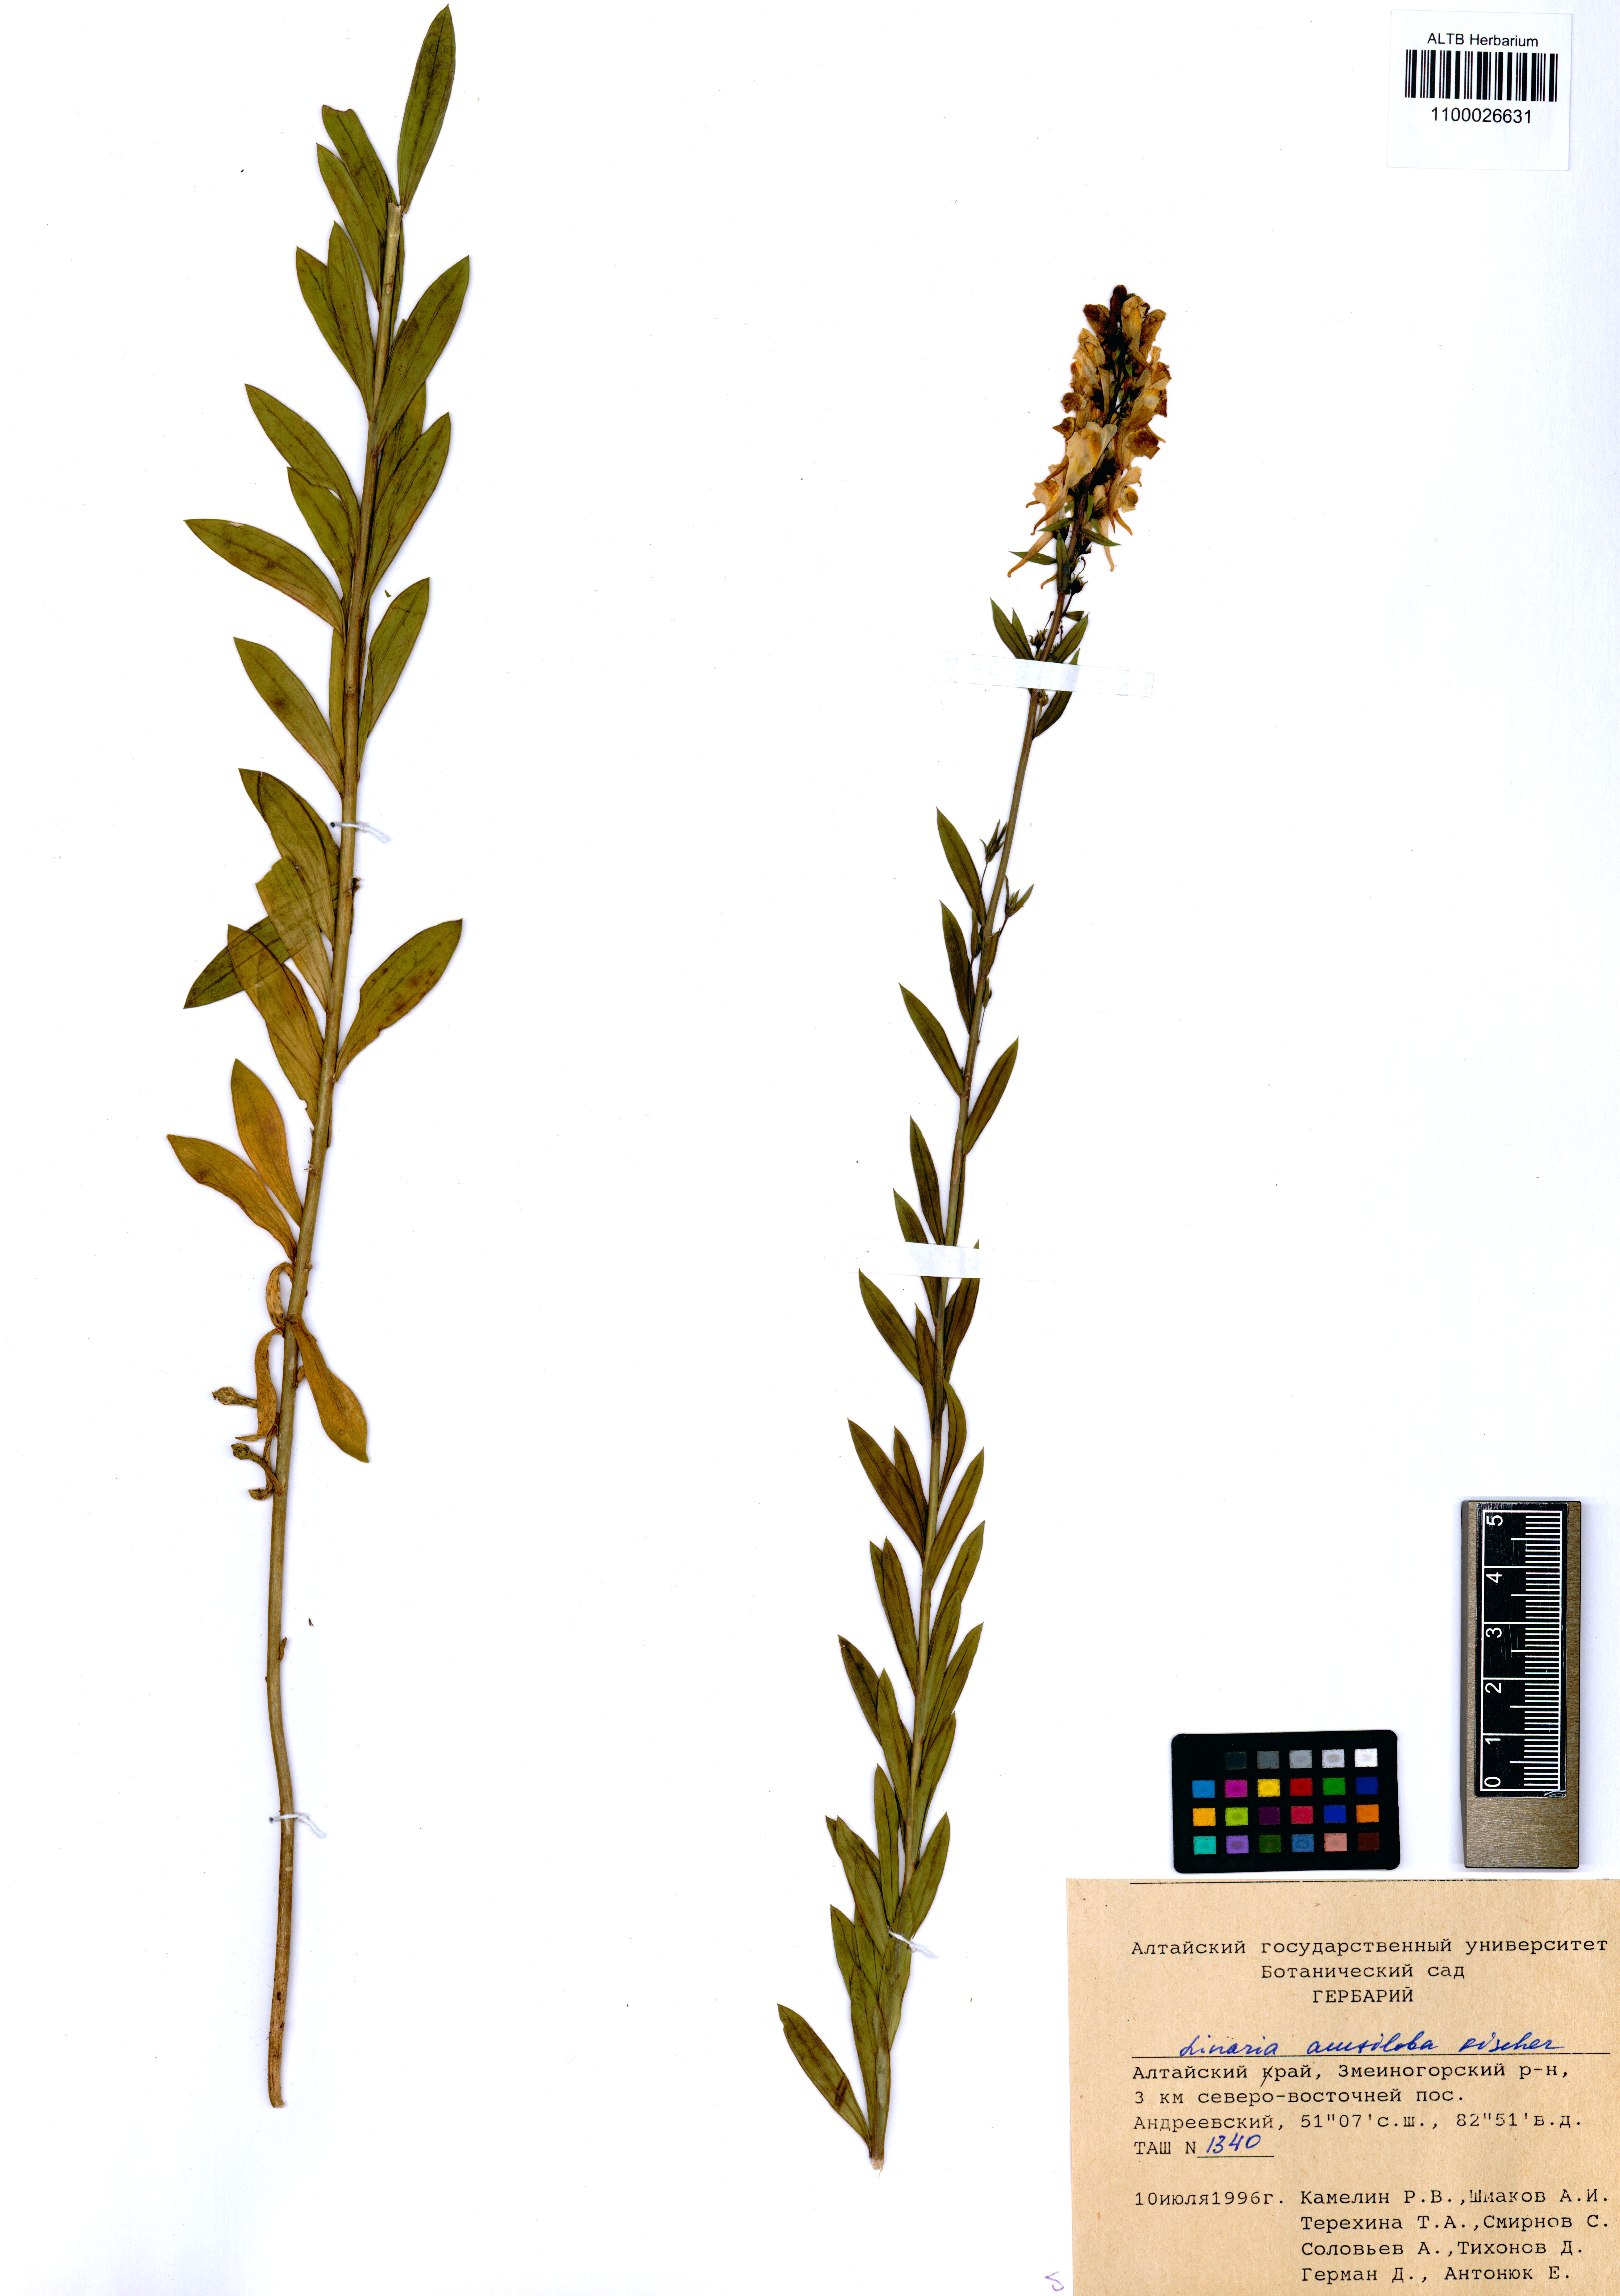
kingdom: Plantae
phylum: Tracheophyta
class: Magnoliopsida
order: Lamiales
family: Plantaginaceae
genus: Linaria
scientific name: Linaria acutiloba
